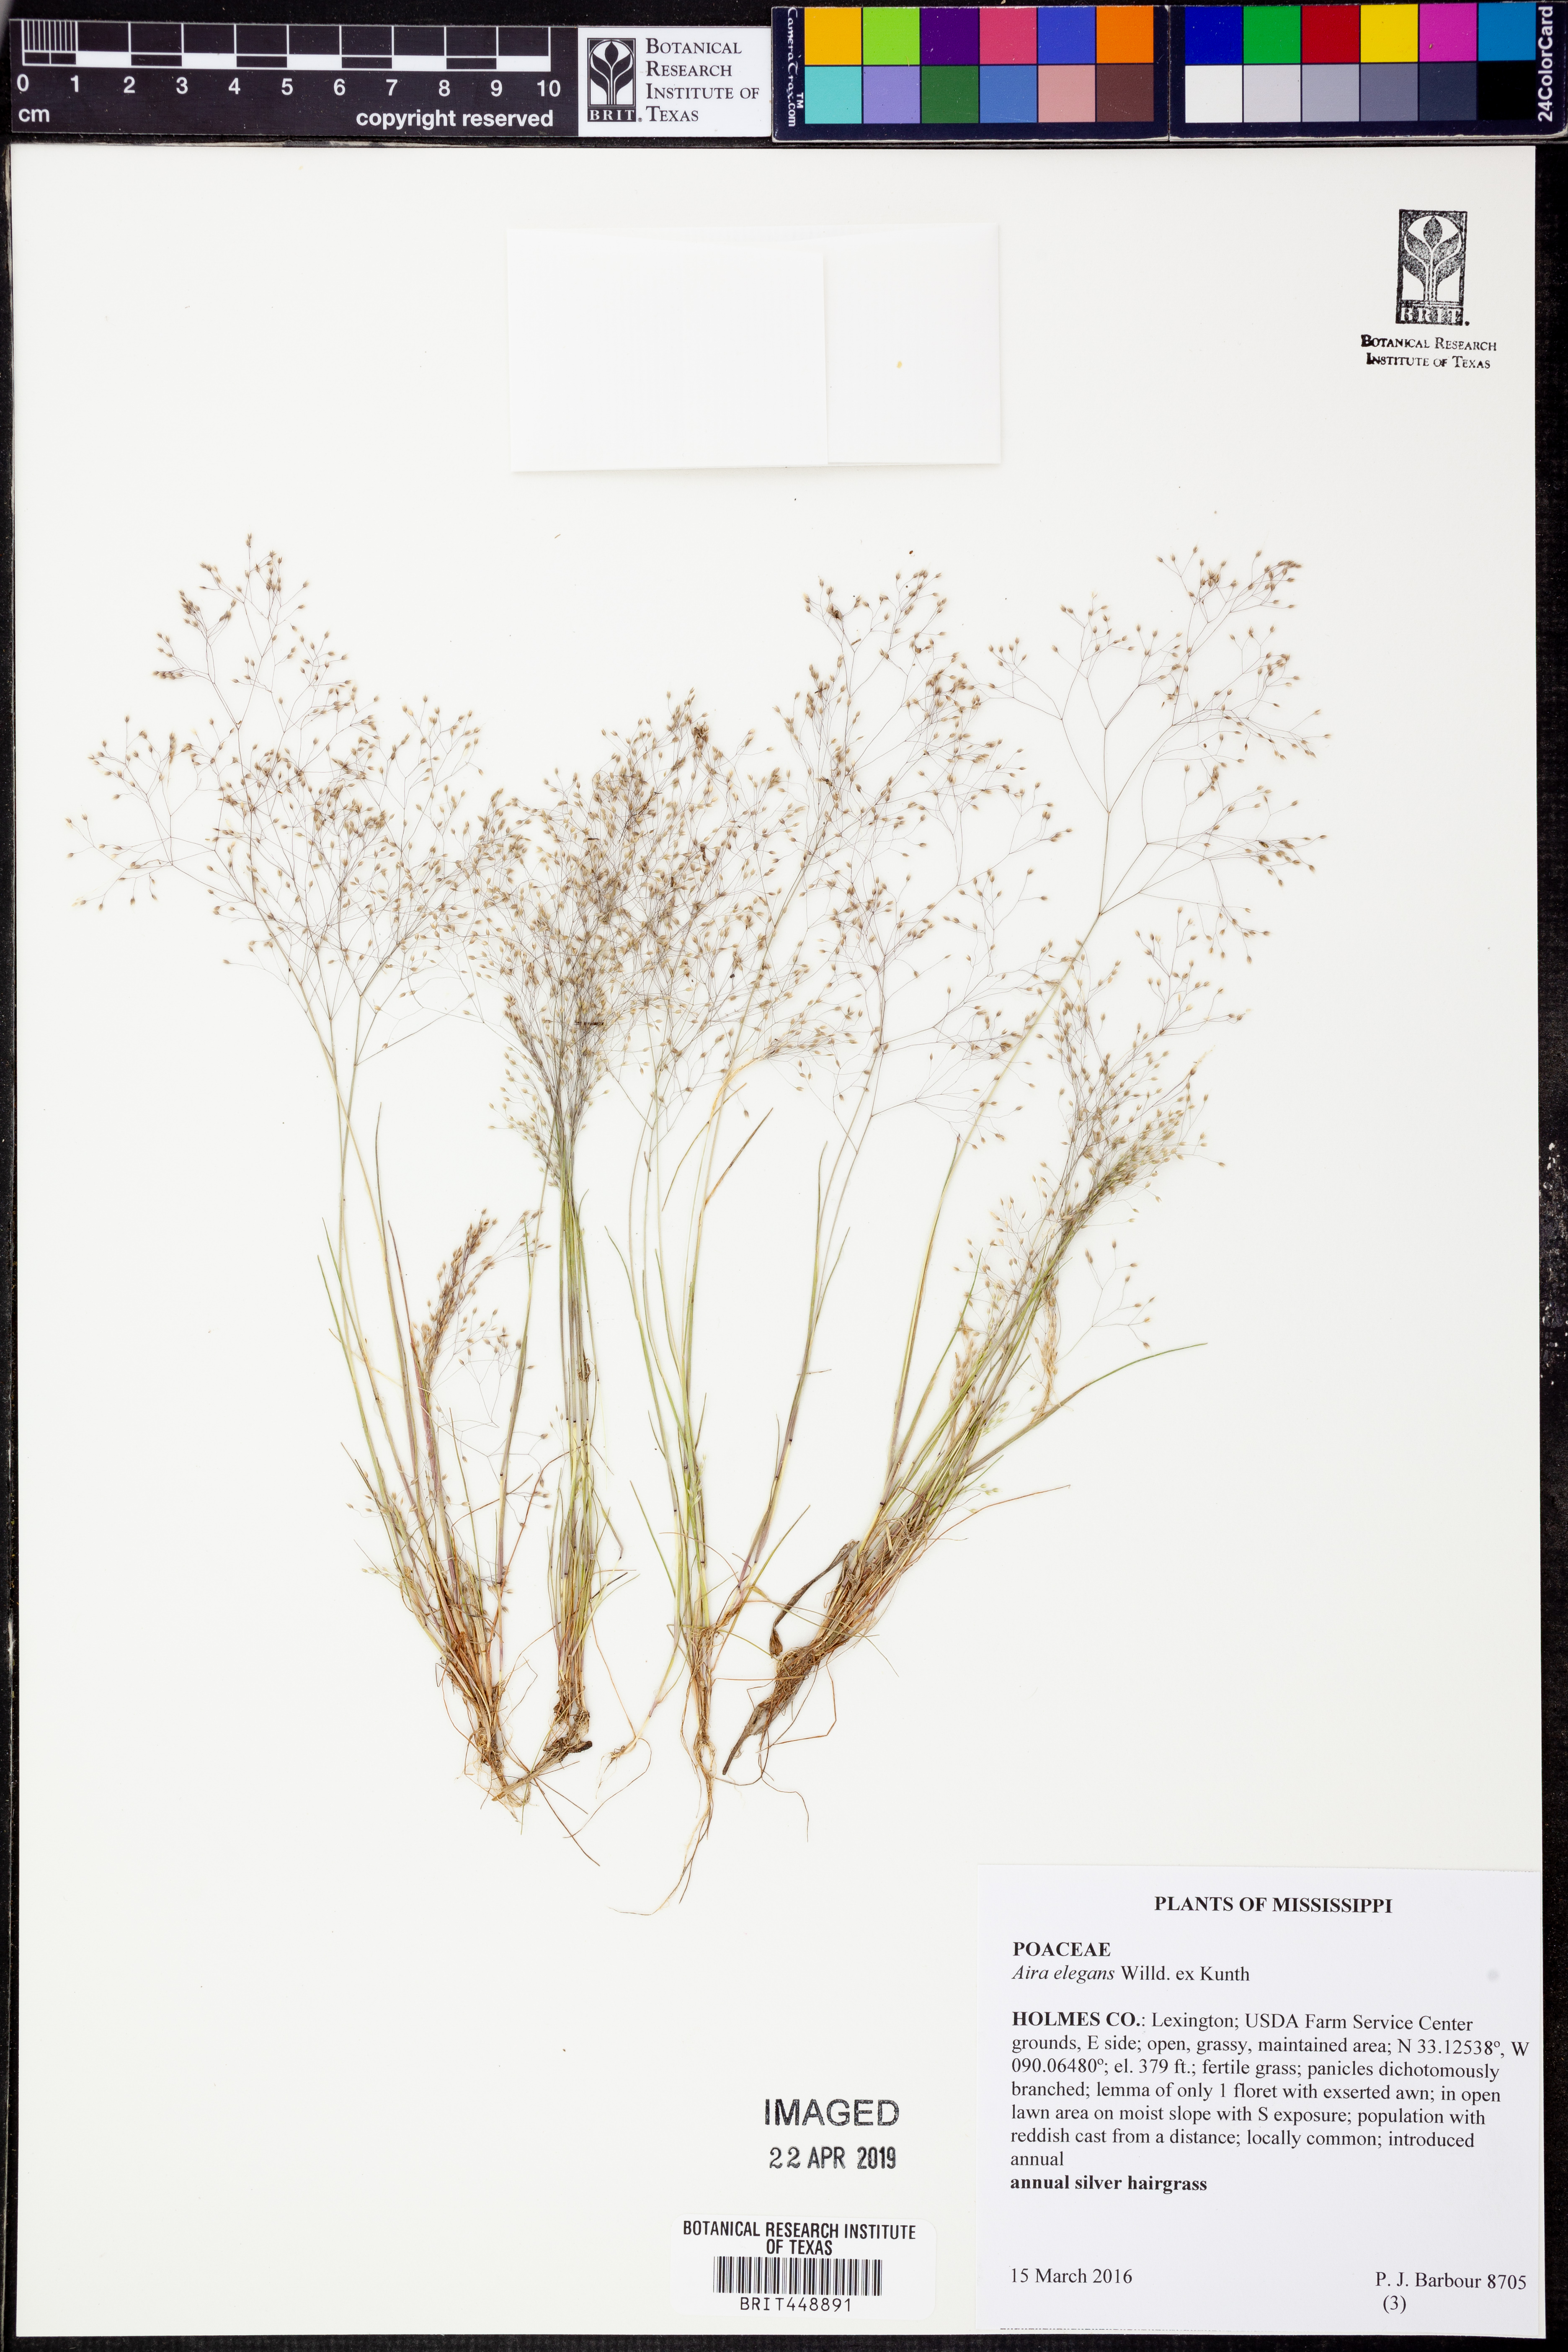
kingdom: Plantae
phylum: Tracheophyta
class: Liliopsida
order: Poales
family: Poaceae
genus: Aira
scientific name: Aira elegans
